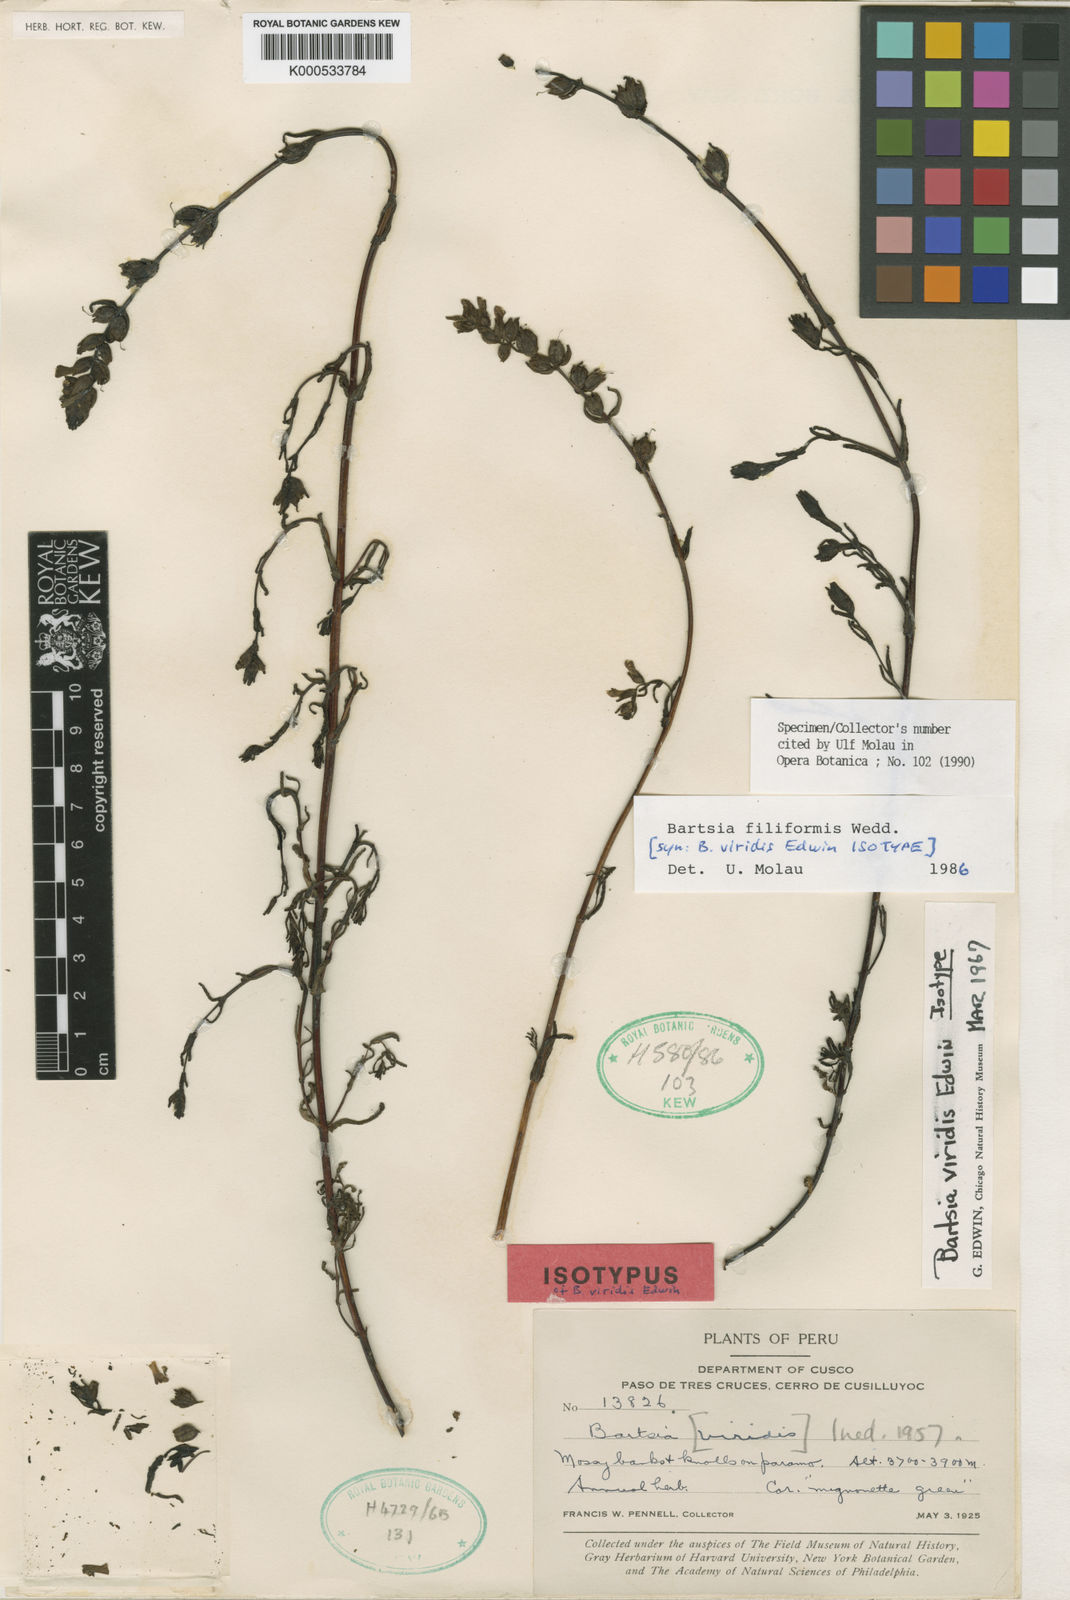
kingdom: Plantae
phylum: Tracheophyta
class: Magnoliopsida
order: Lamiales
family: Orobanchaceae
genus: Neobartsia
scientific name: Neobartsia filiformis
